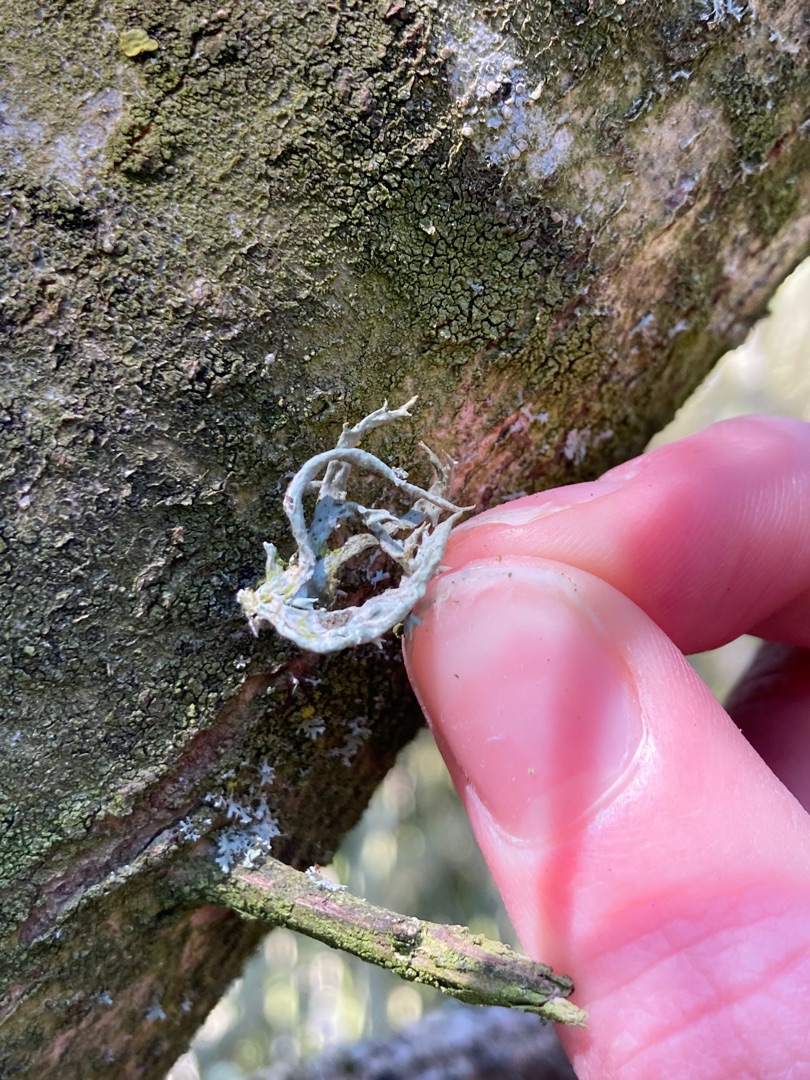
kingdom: Fungi
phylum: Ascomycota
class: Lecanoromycetes
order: Lecanorales
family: Parmeliaceae
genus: Evernia
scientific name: Evernia prunastri
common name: Almindelig slåenlav
